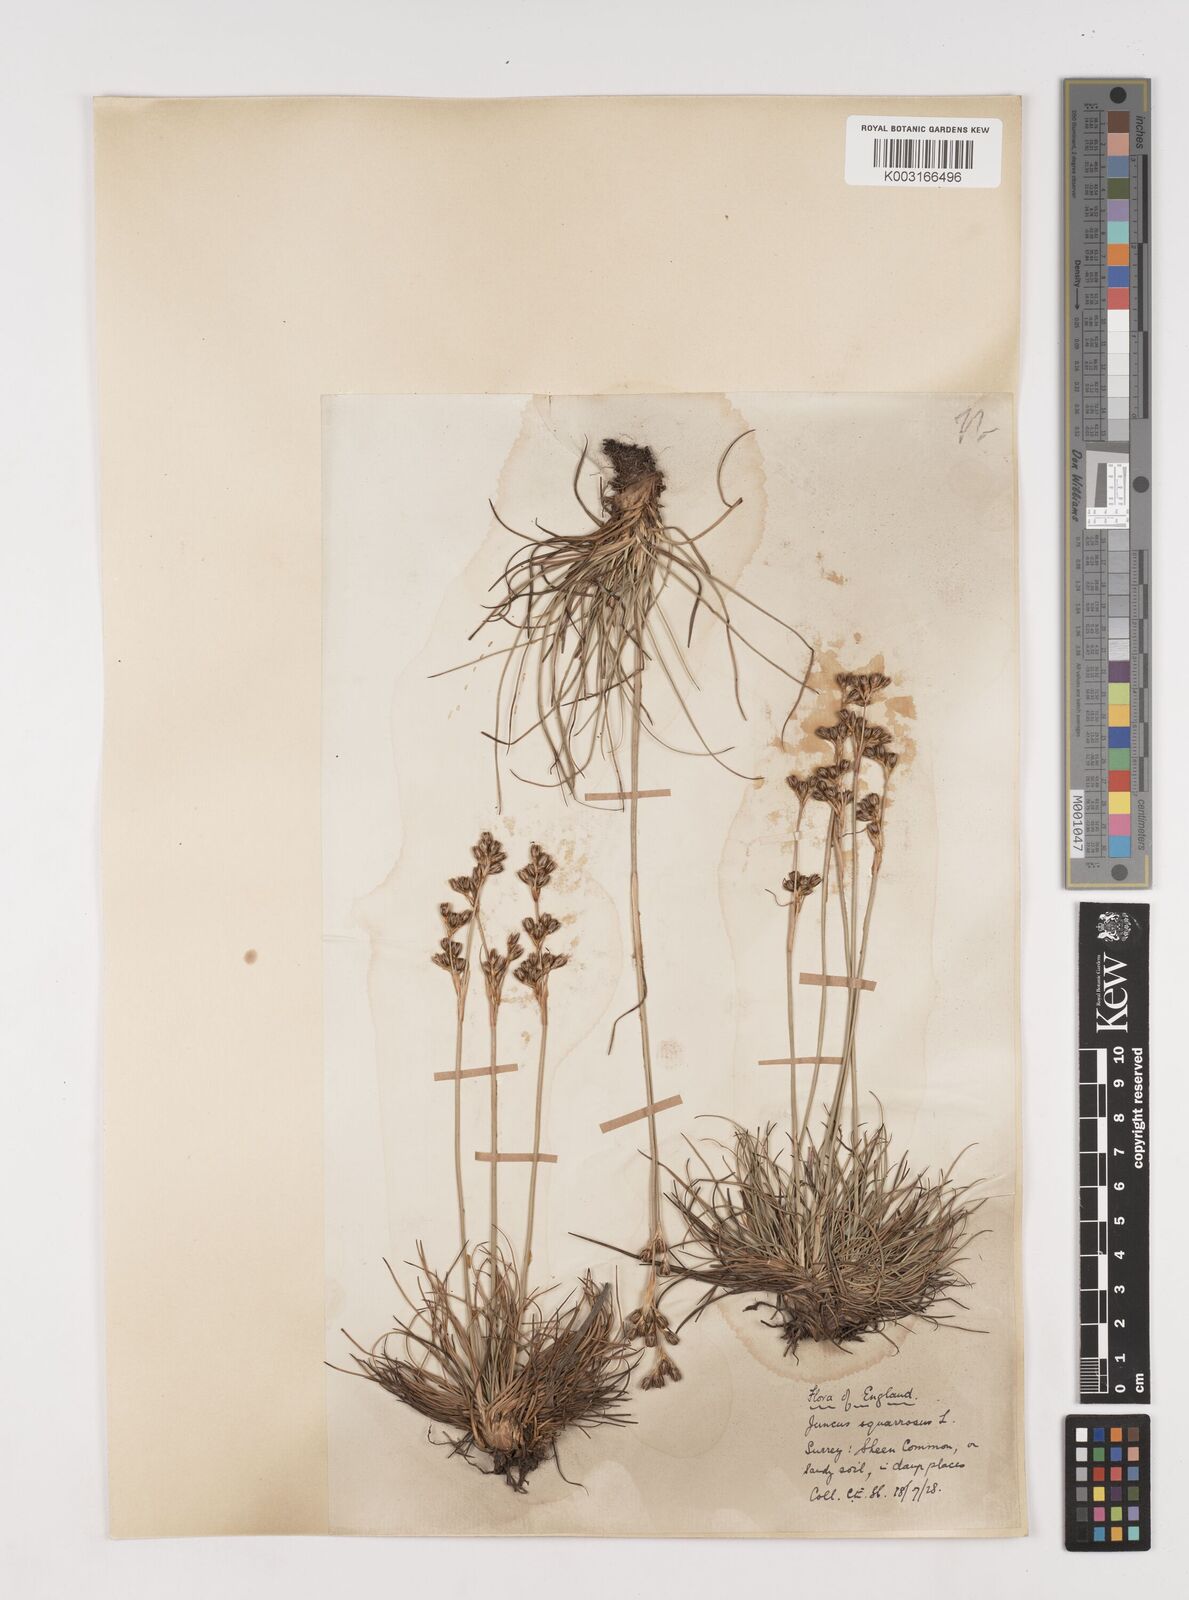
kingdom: Plantae
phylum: Tracheophyta
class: Liliopsida
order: Poales
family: Juncaceae
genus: Juncus
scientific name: Juncus squarrosus
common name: Heath rush
